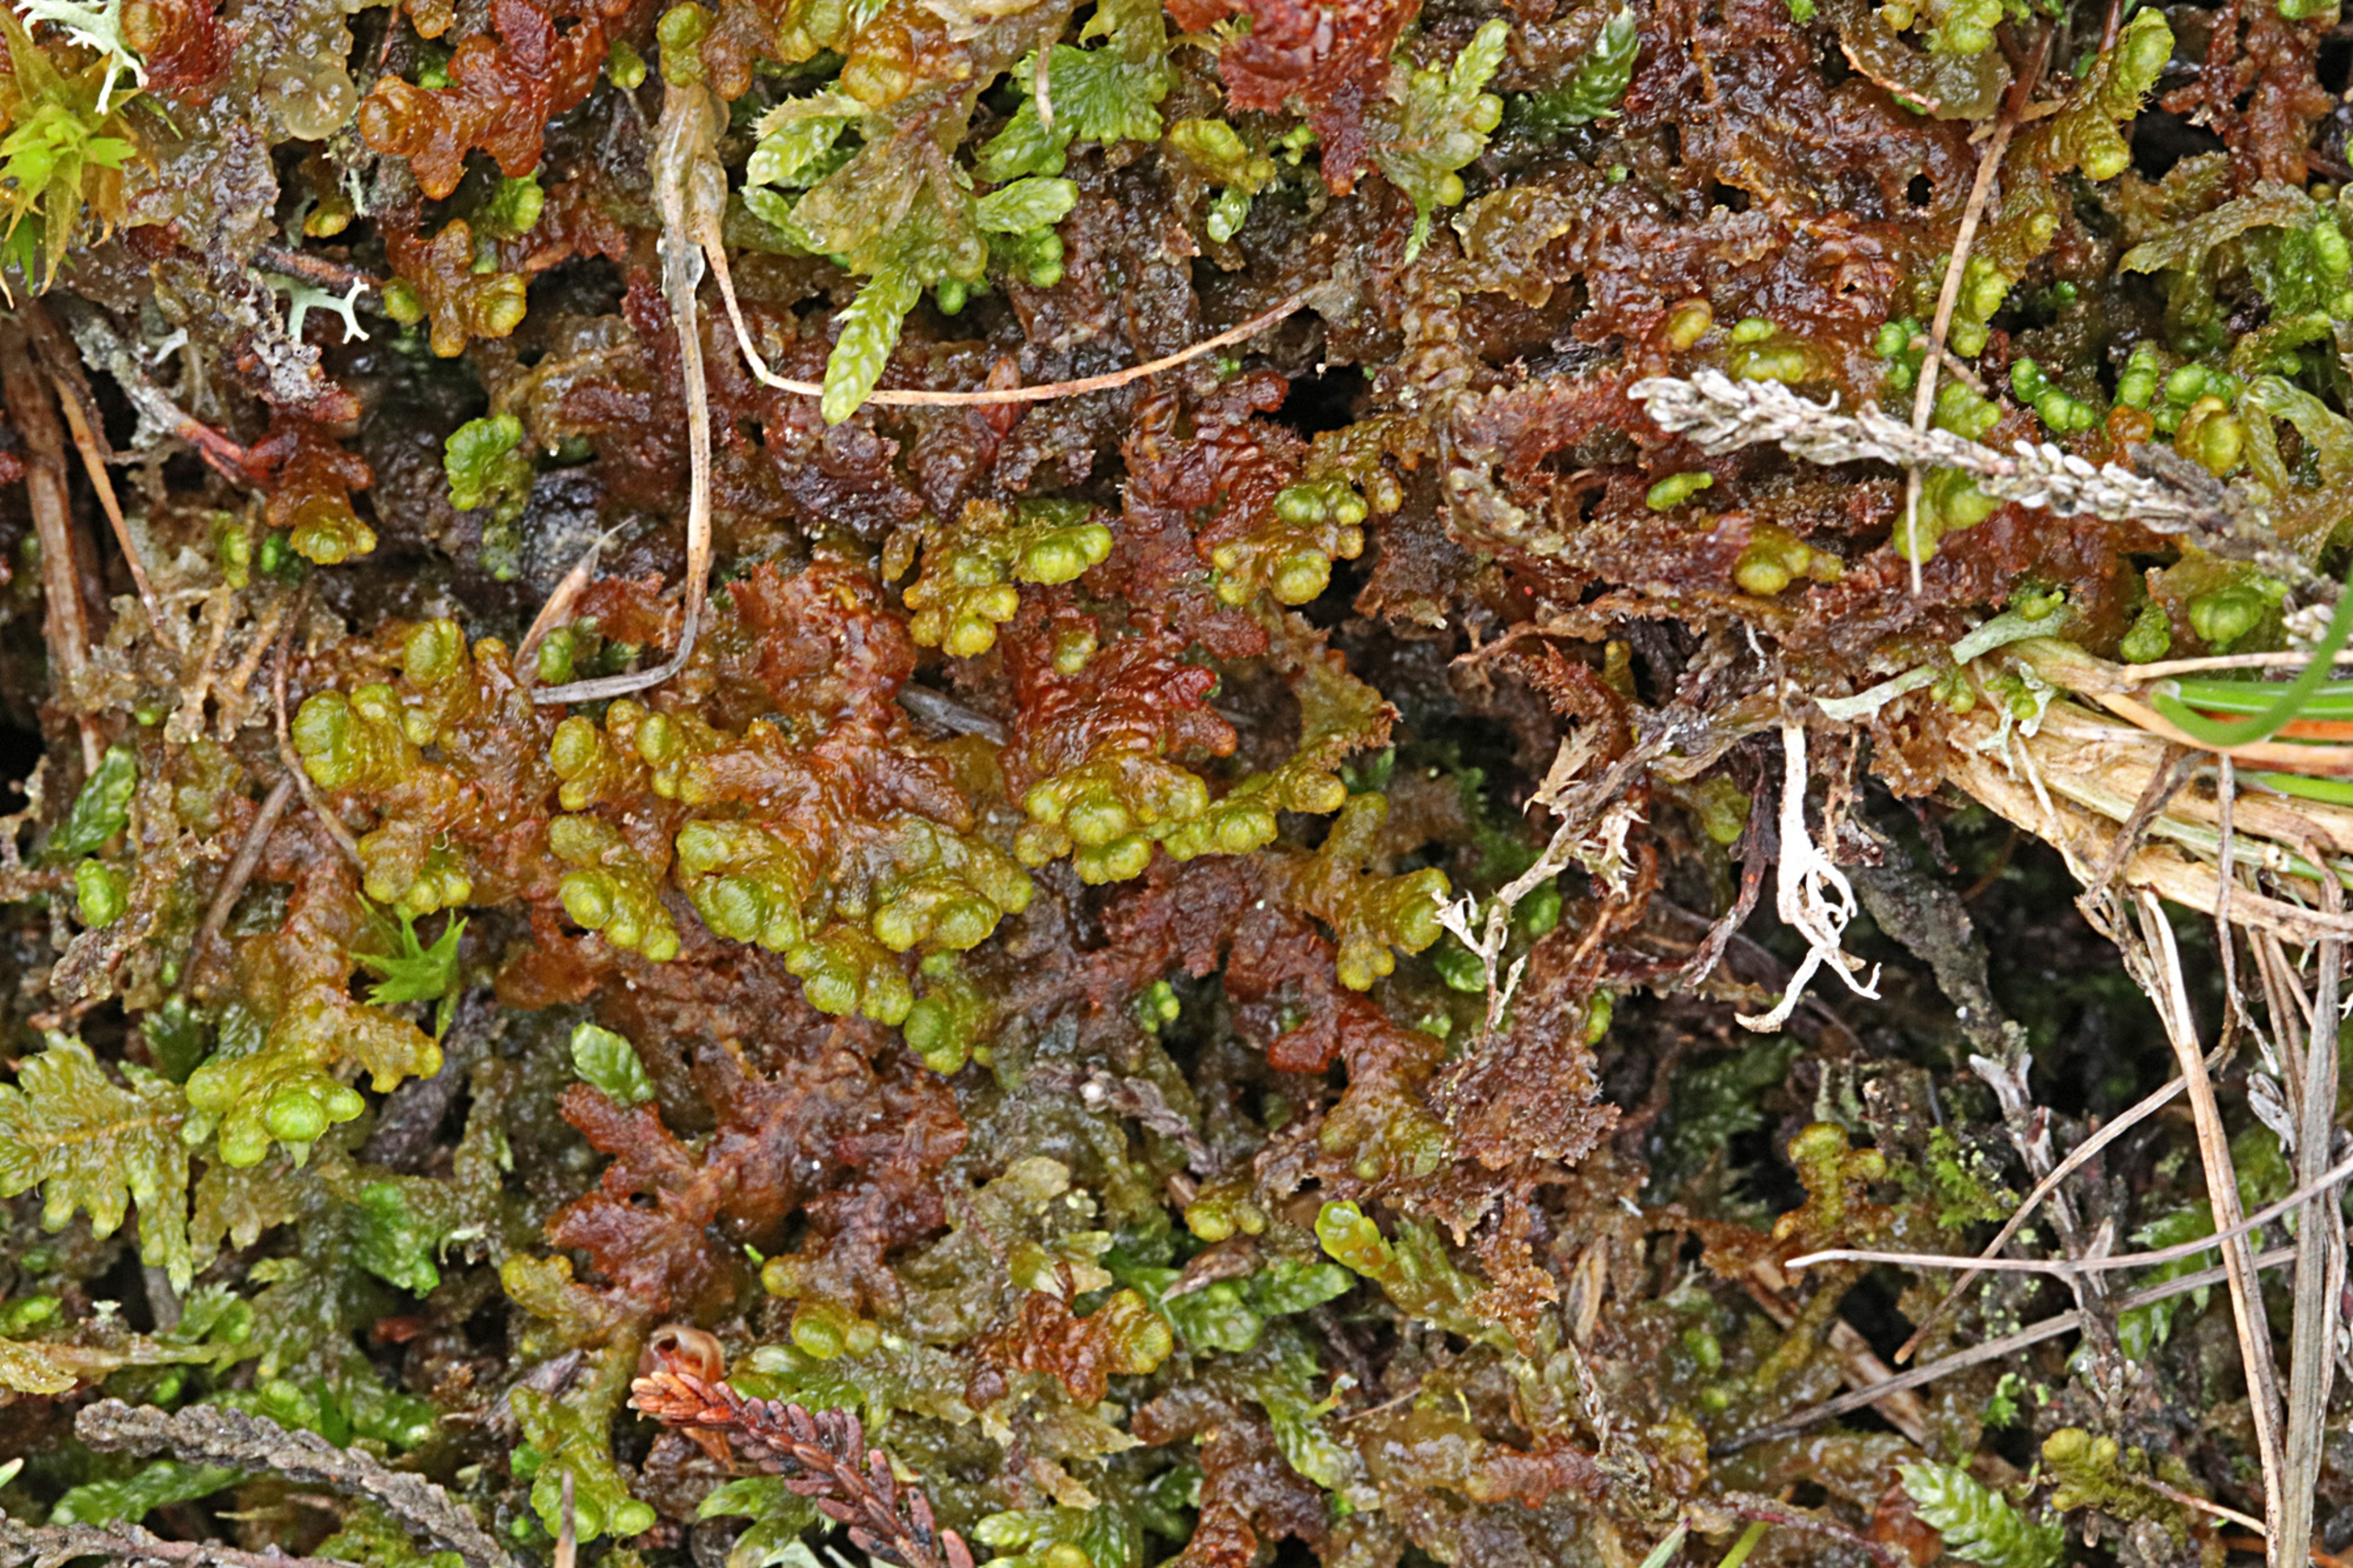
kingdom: Plantae
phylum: Marchantiophyta
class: Jungermanniopsida
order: Ptilidiales
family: Ptilidiaceae
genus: Ptilidium
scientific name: Ptilidium ciliare
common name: Almindelig frynsemos
